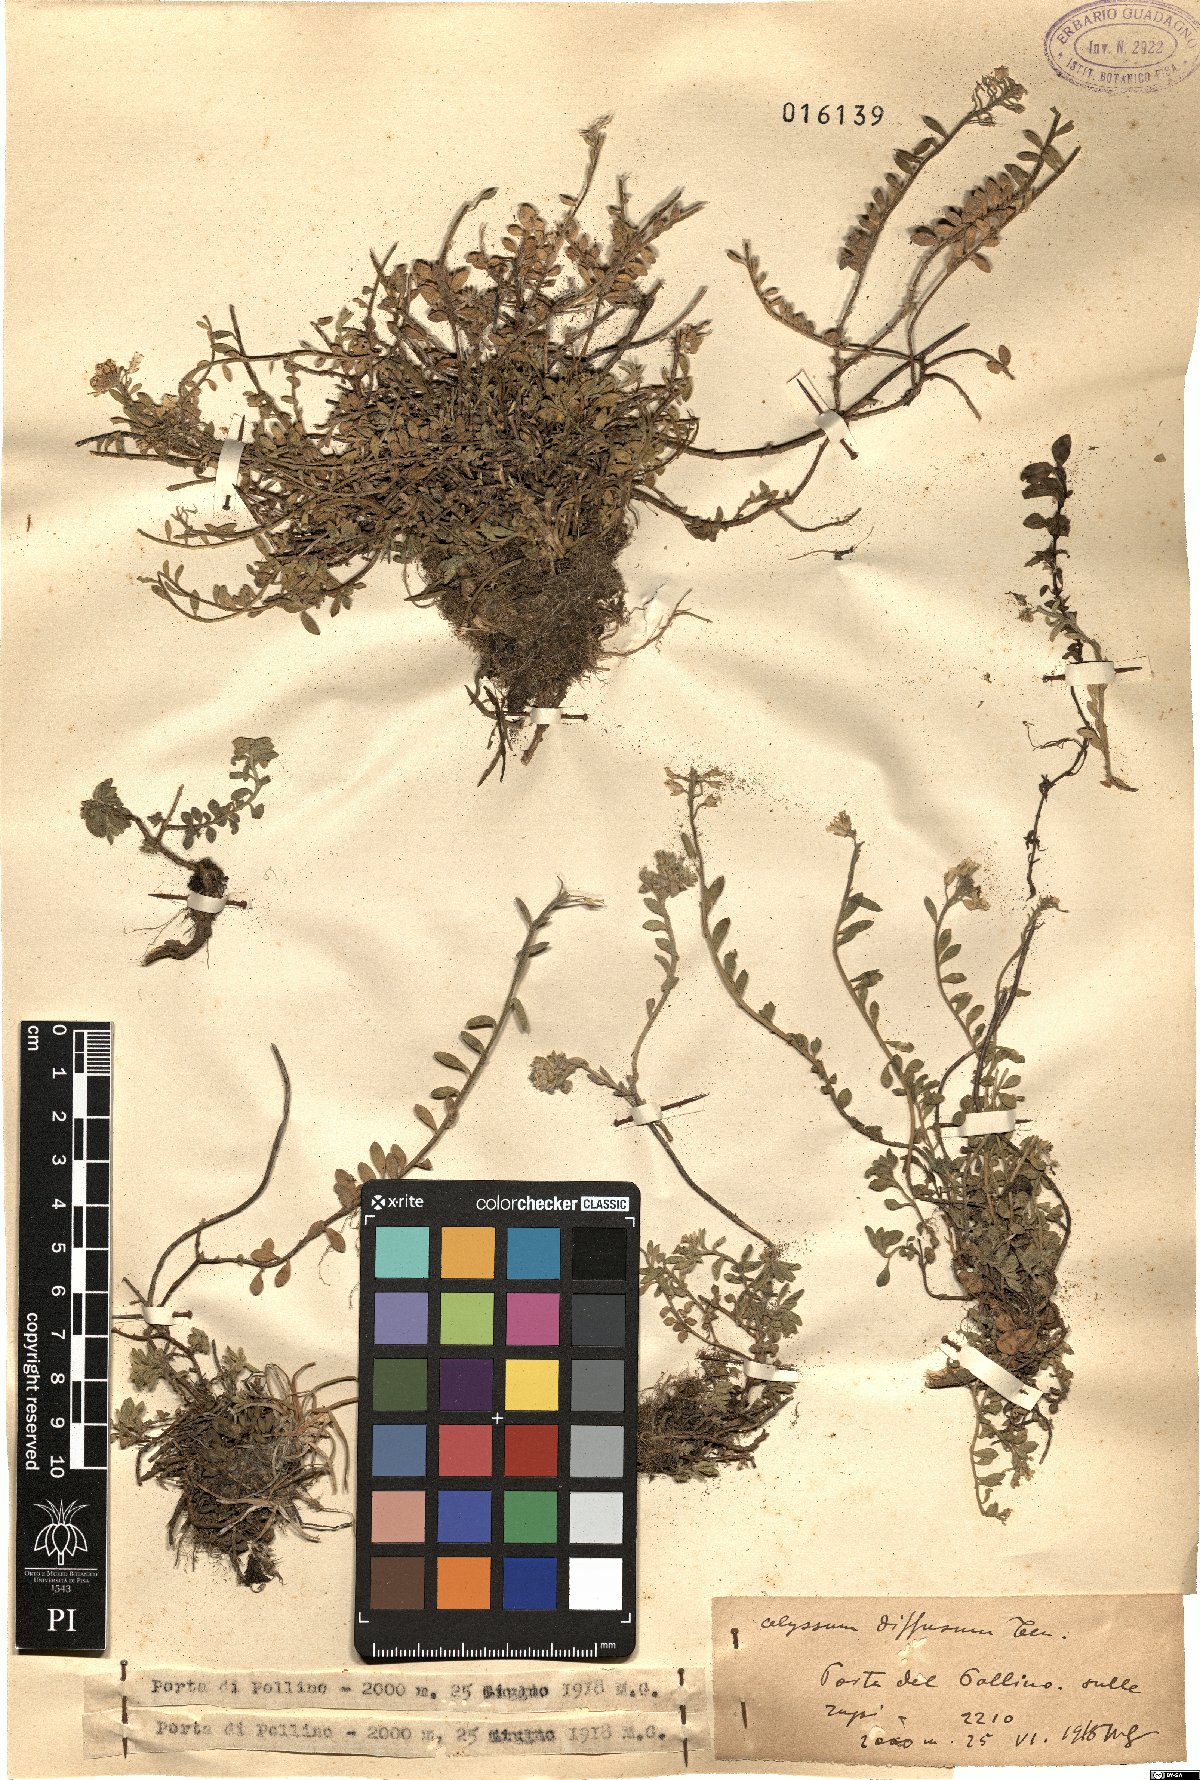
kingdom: Plantae
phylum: Tracheophyta
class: Magnoliopsida
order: Brassicales
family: Brassicaceae
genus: Alyssum
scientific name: Alyssum diffusum
